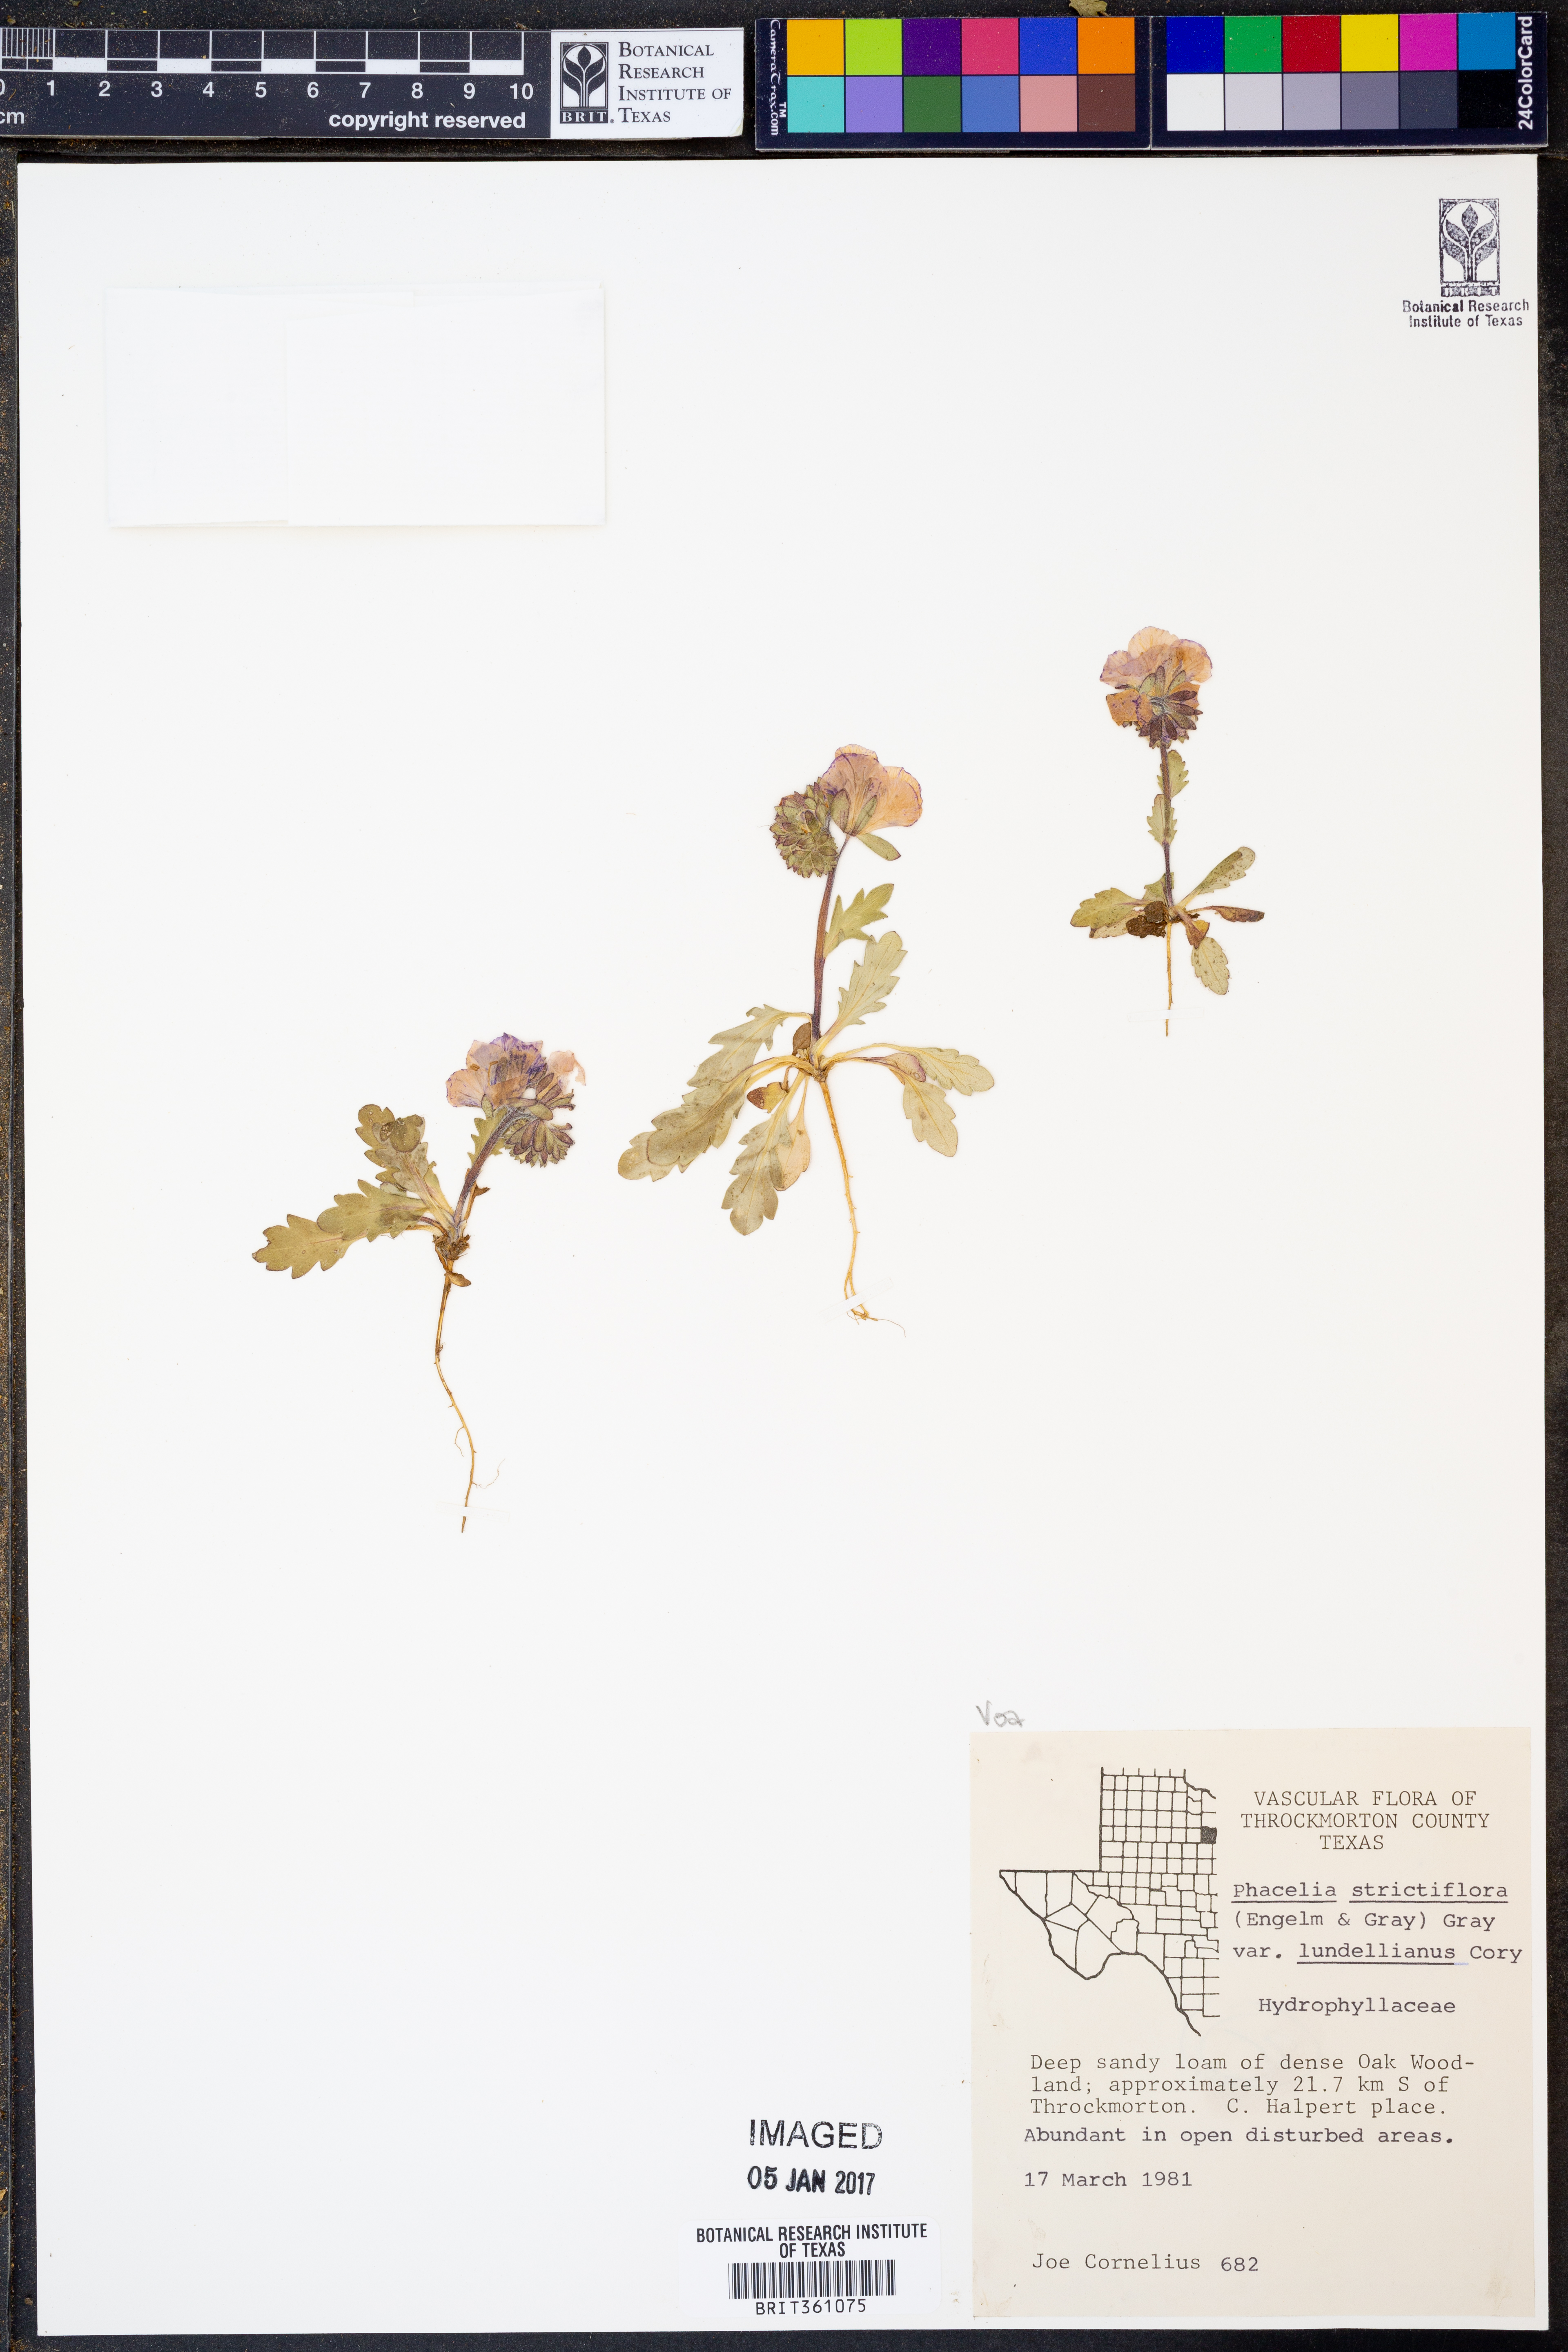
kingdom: Plantae
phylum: Tracheophyta
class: Magnoliopsida
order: Boraginales
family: Hydrophyllaceae
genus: Phacelia
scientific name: Phacelia strictiflora
